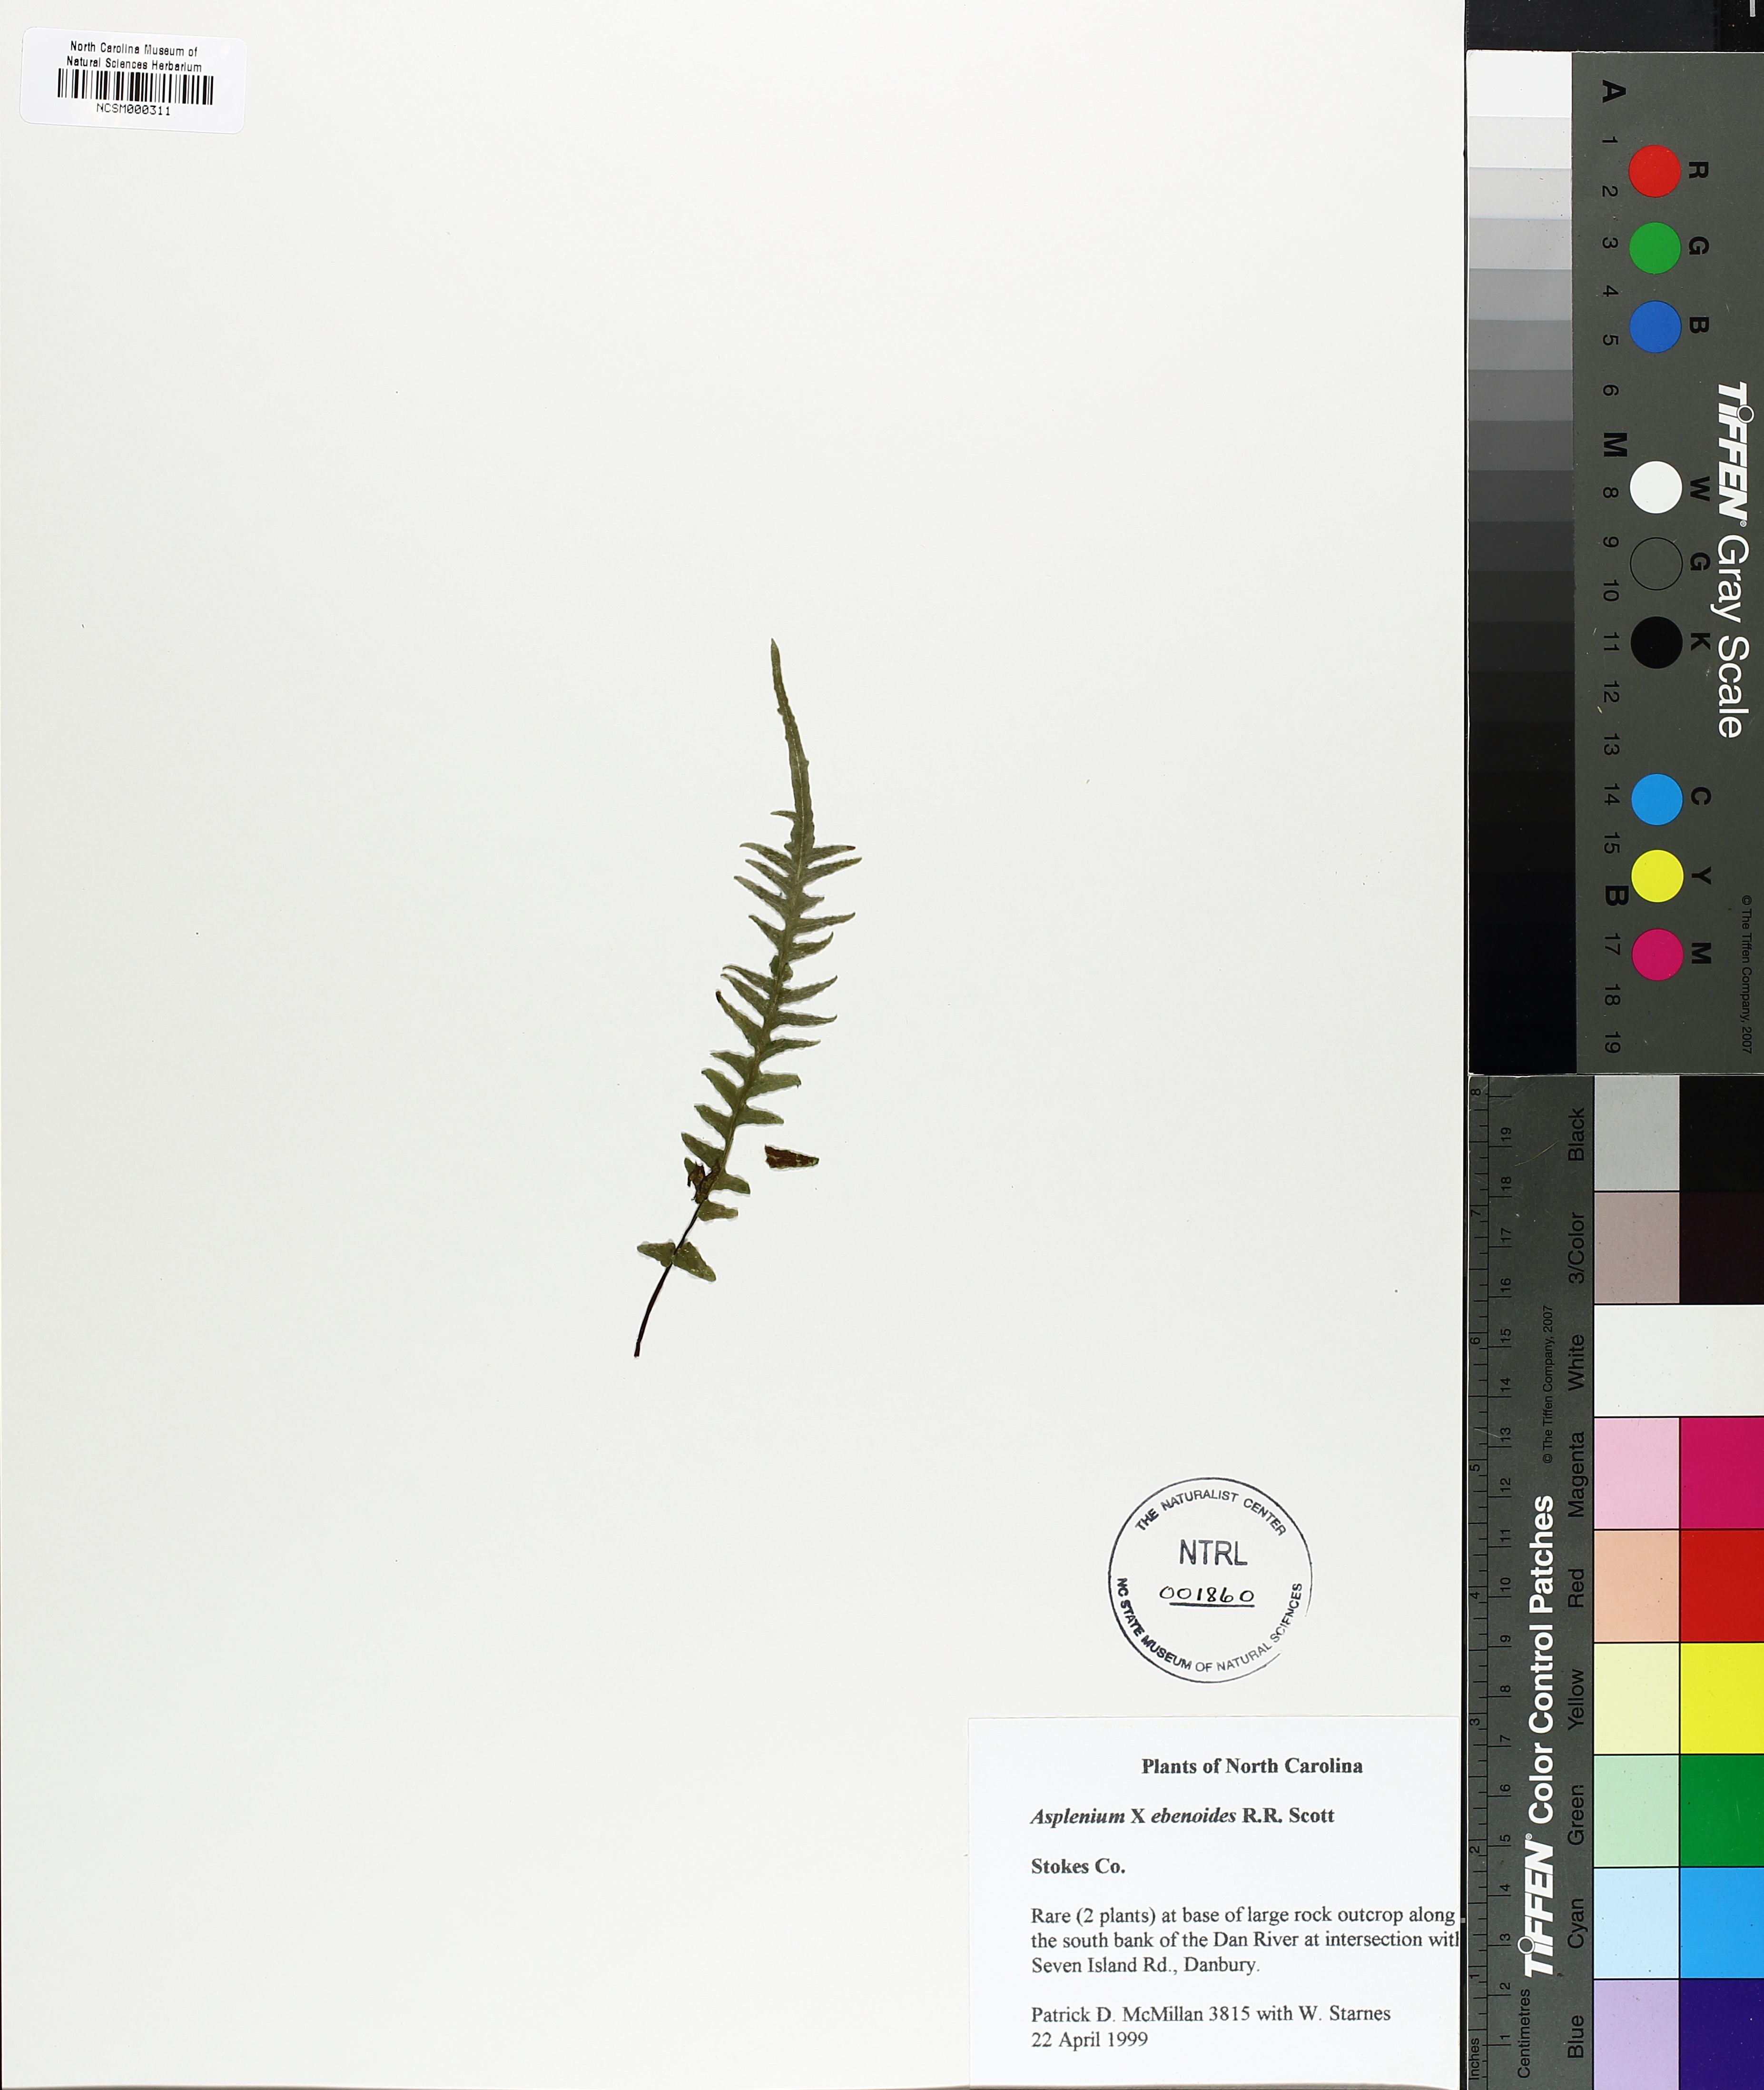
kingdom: Plantae
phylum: Tracheophyta
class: Polypodiopsida
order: Polypodiales
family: Aspleniaceae
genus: Asplenium
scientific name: Asplenium ebenoides
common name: Dragon-tail fern
